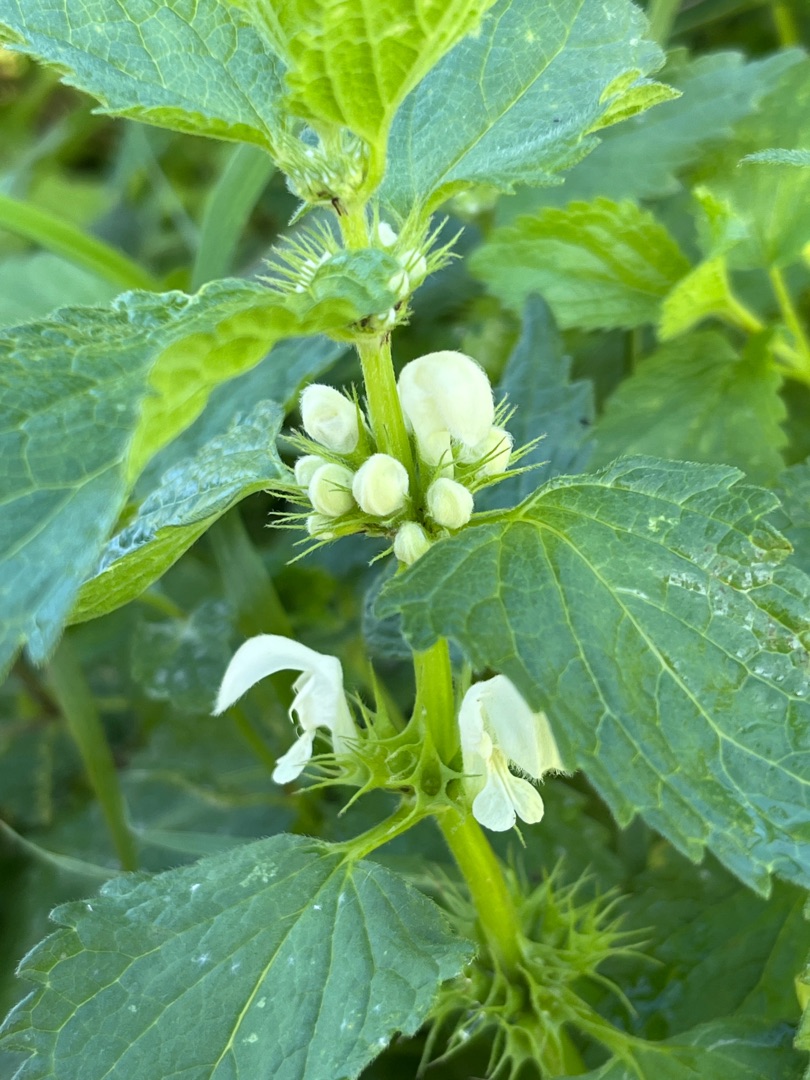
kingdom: Plantae
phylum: Tracheophyta
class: Magnoliopsida
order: Lamiales
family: Lamiaceae
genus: Lamium
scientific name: Lamium album
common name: Døvnælde
